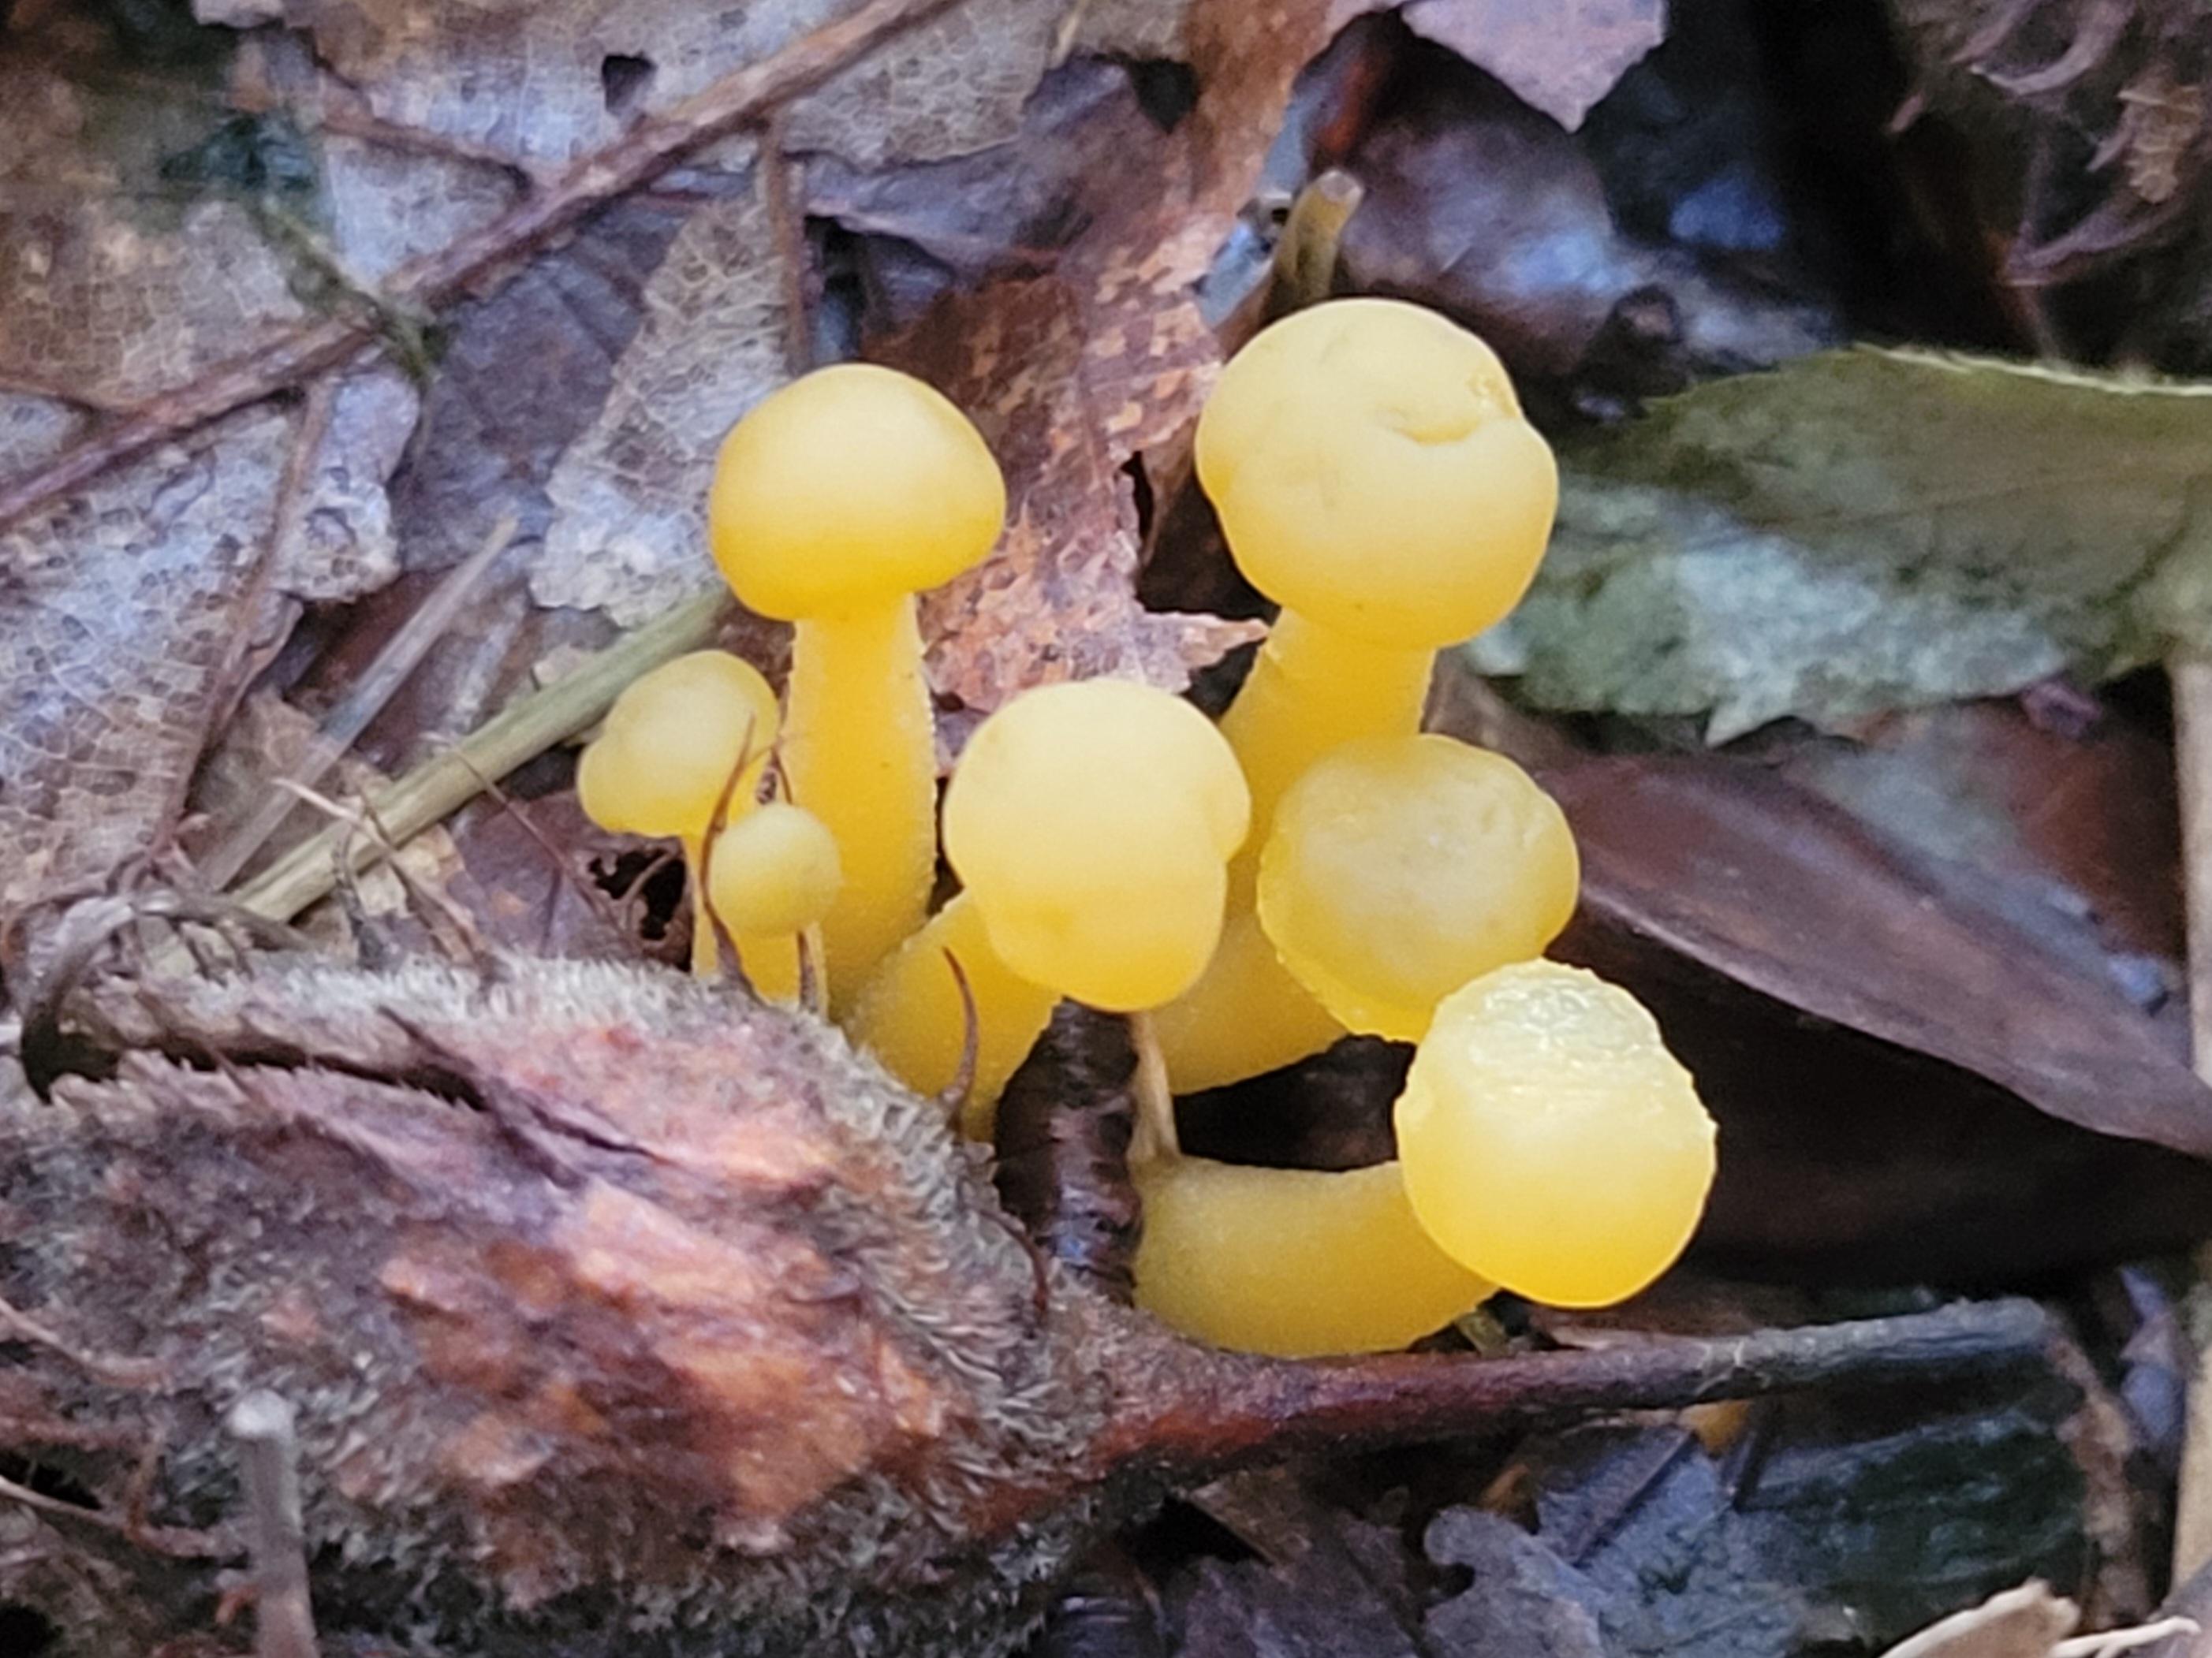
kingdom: Fungi
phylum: Ascomycota
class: Leotiomycetes
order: Leotiales
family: Leotiaceae
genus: Leotia
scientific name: Leotia lubrica
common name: ravsvamp
